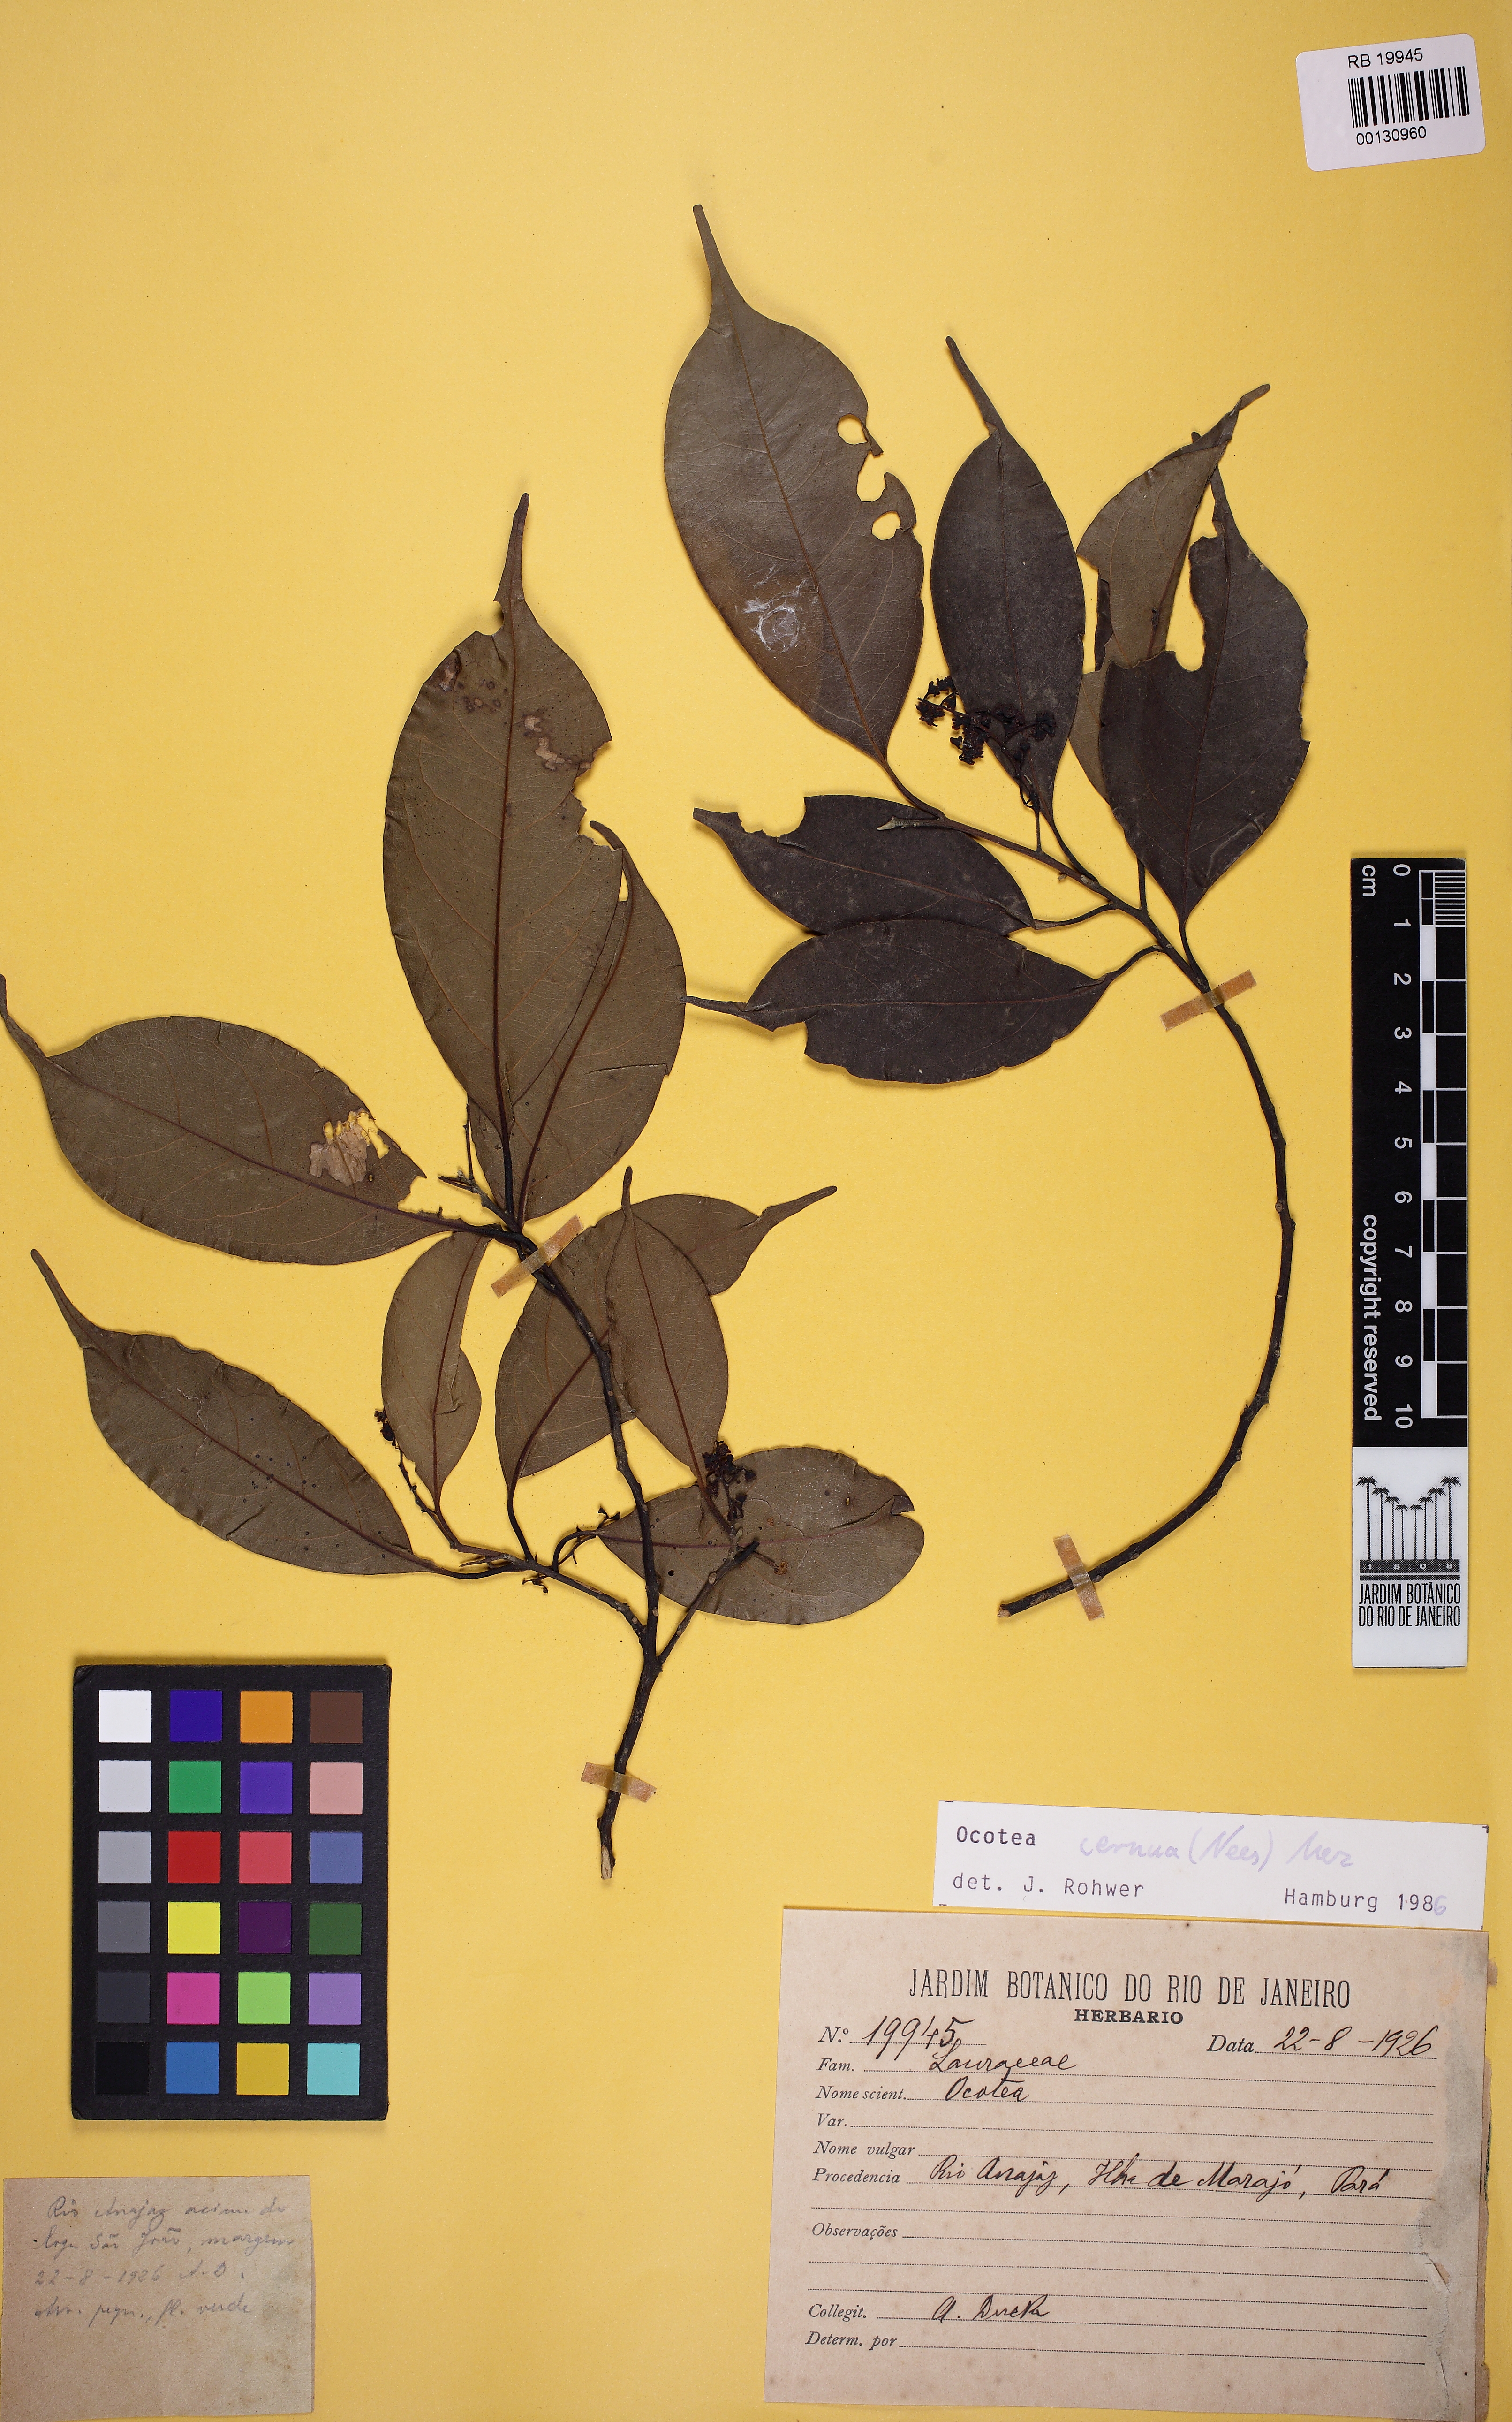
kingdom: Plantae
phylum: Tracheophyta
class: Magnoliopsida
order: Laurales
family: Lauraceae
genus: Ocotea
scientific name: Ocotea leptobotra
